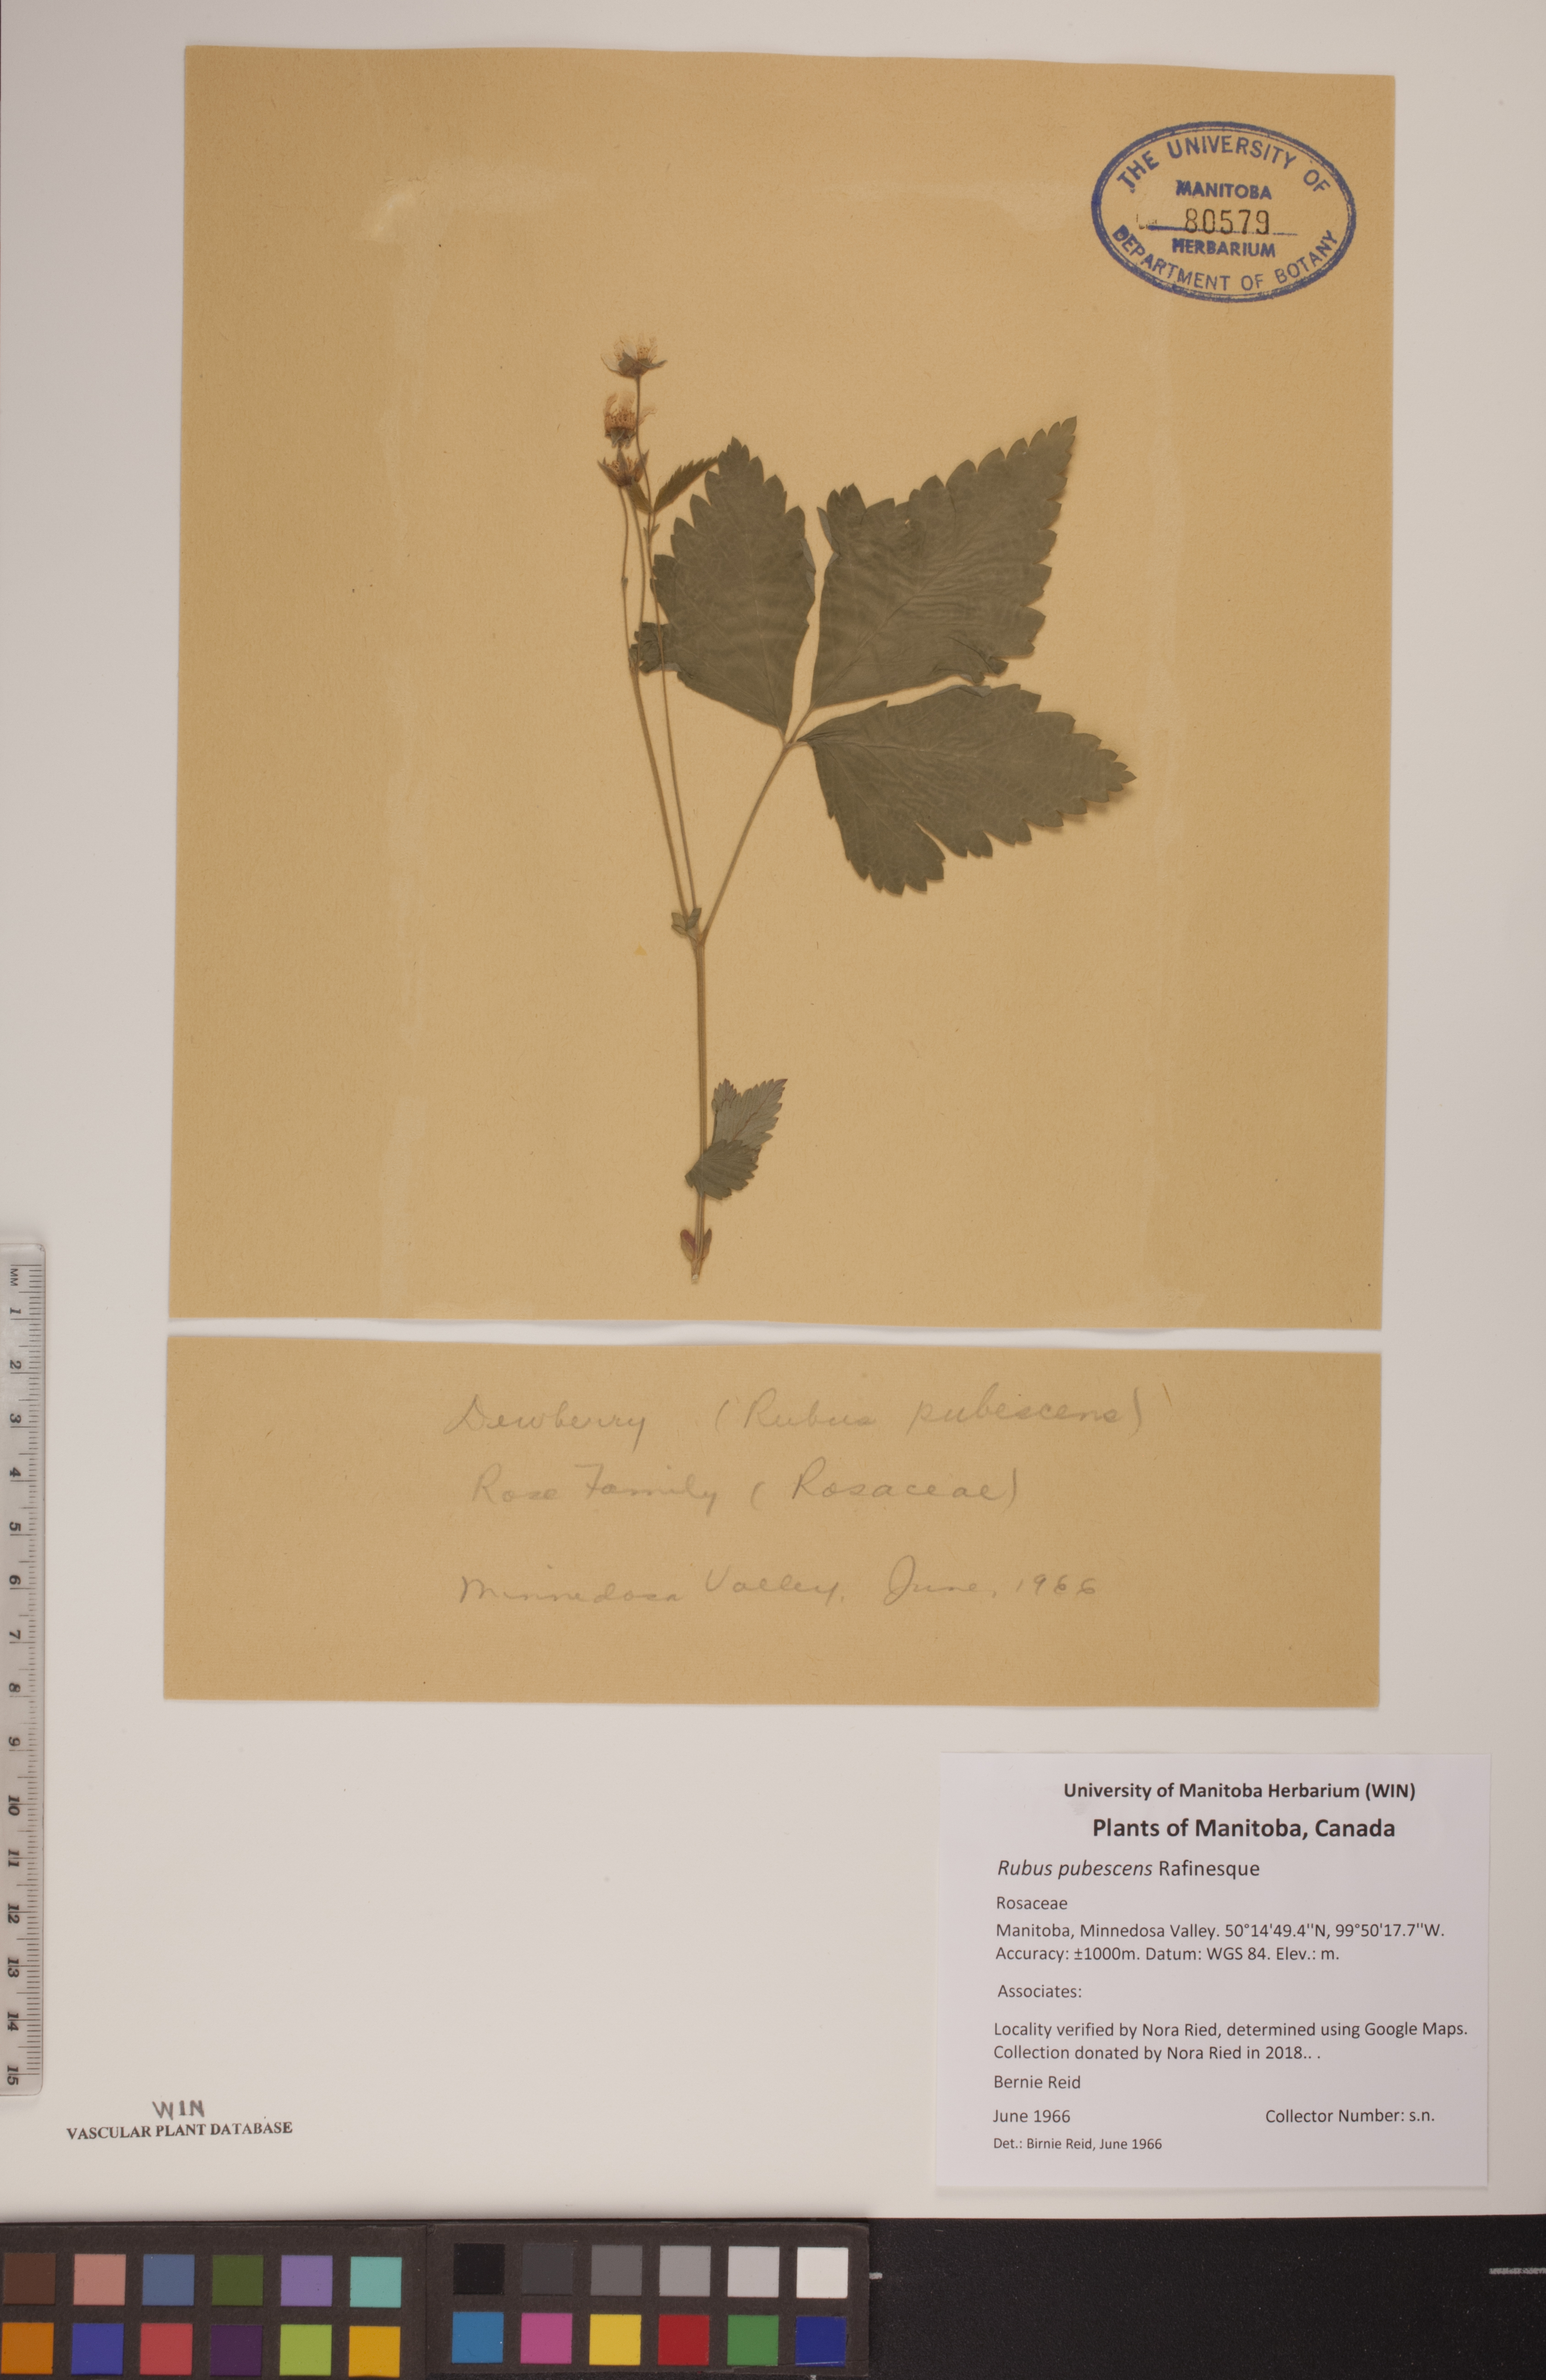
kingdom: Plantae
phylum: Tracheophyta
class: Magnoliopsida
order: Rosales
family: Rosaceae
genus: Rubus
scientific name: Rubus pubescens
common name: Dwarf raspberry
